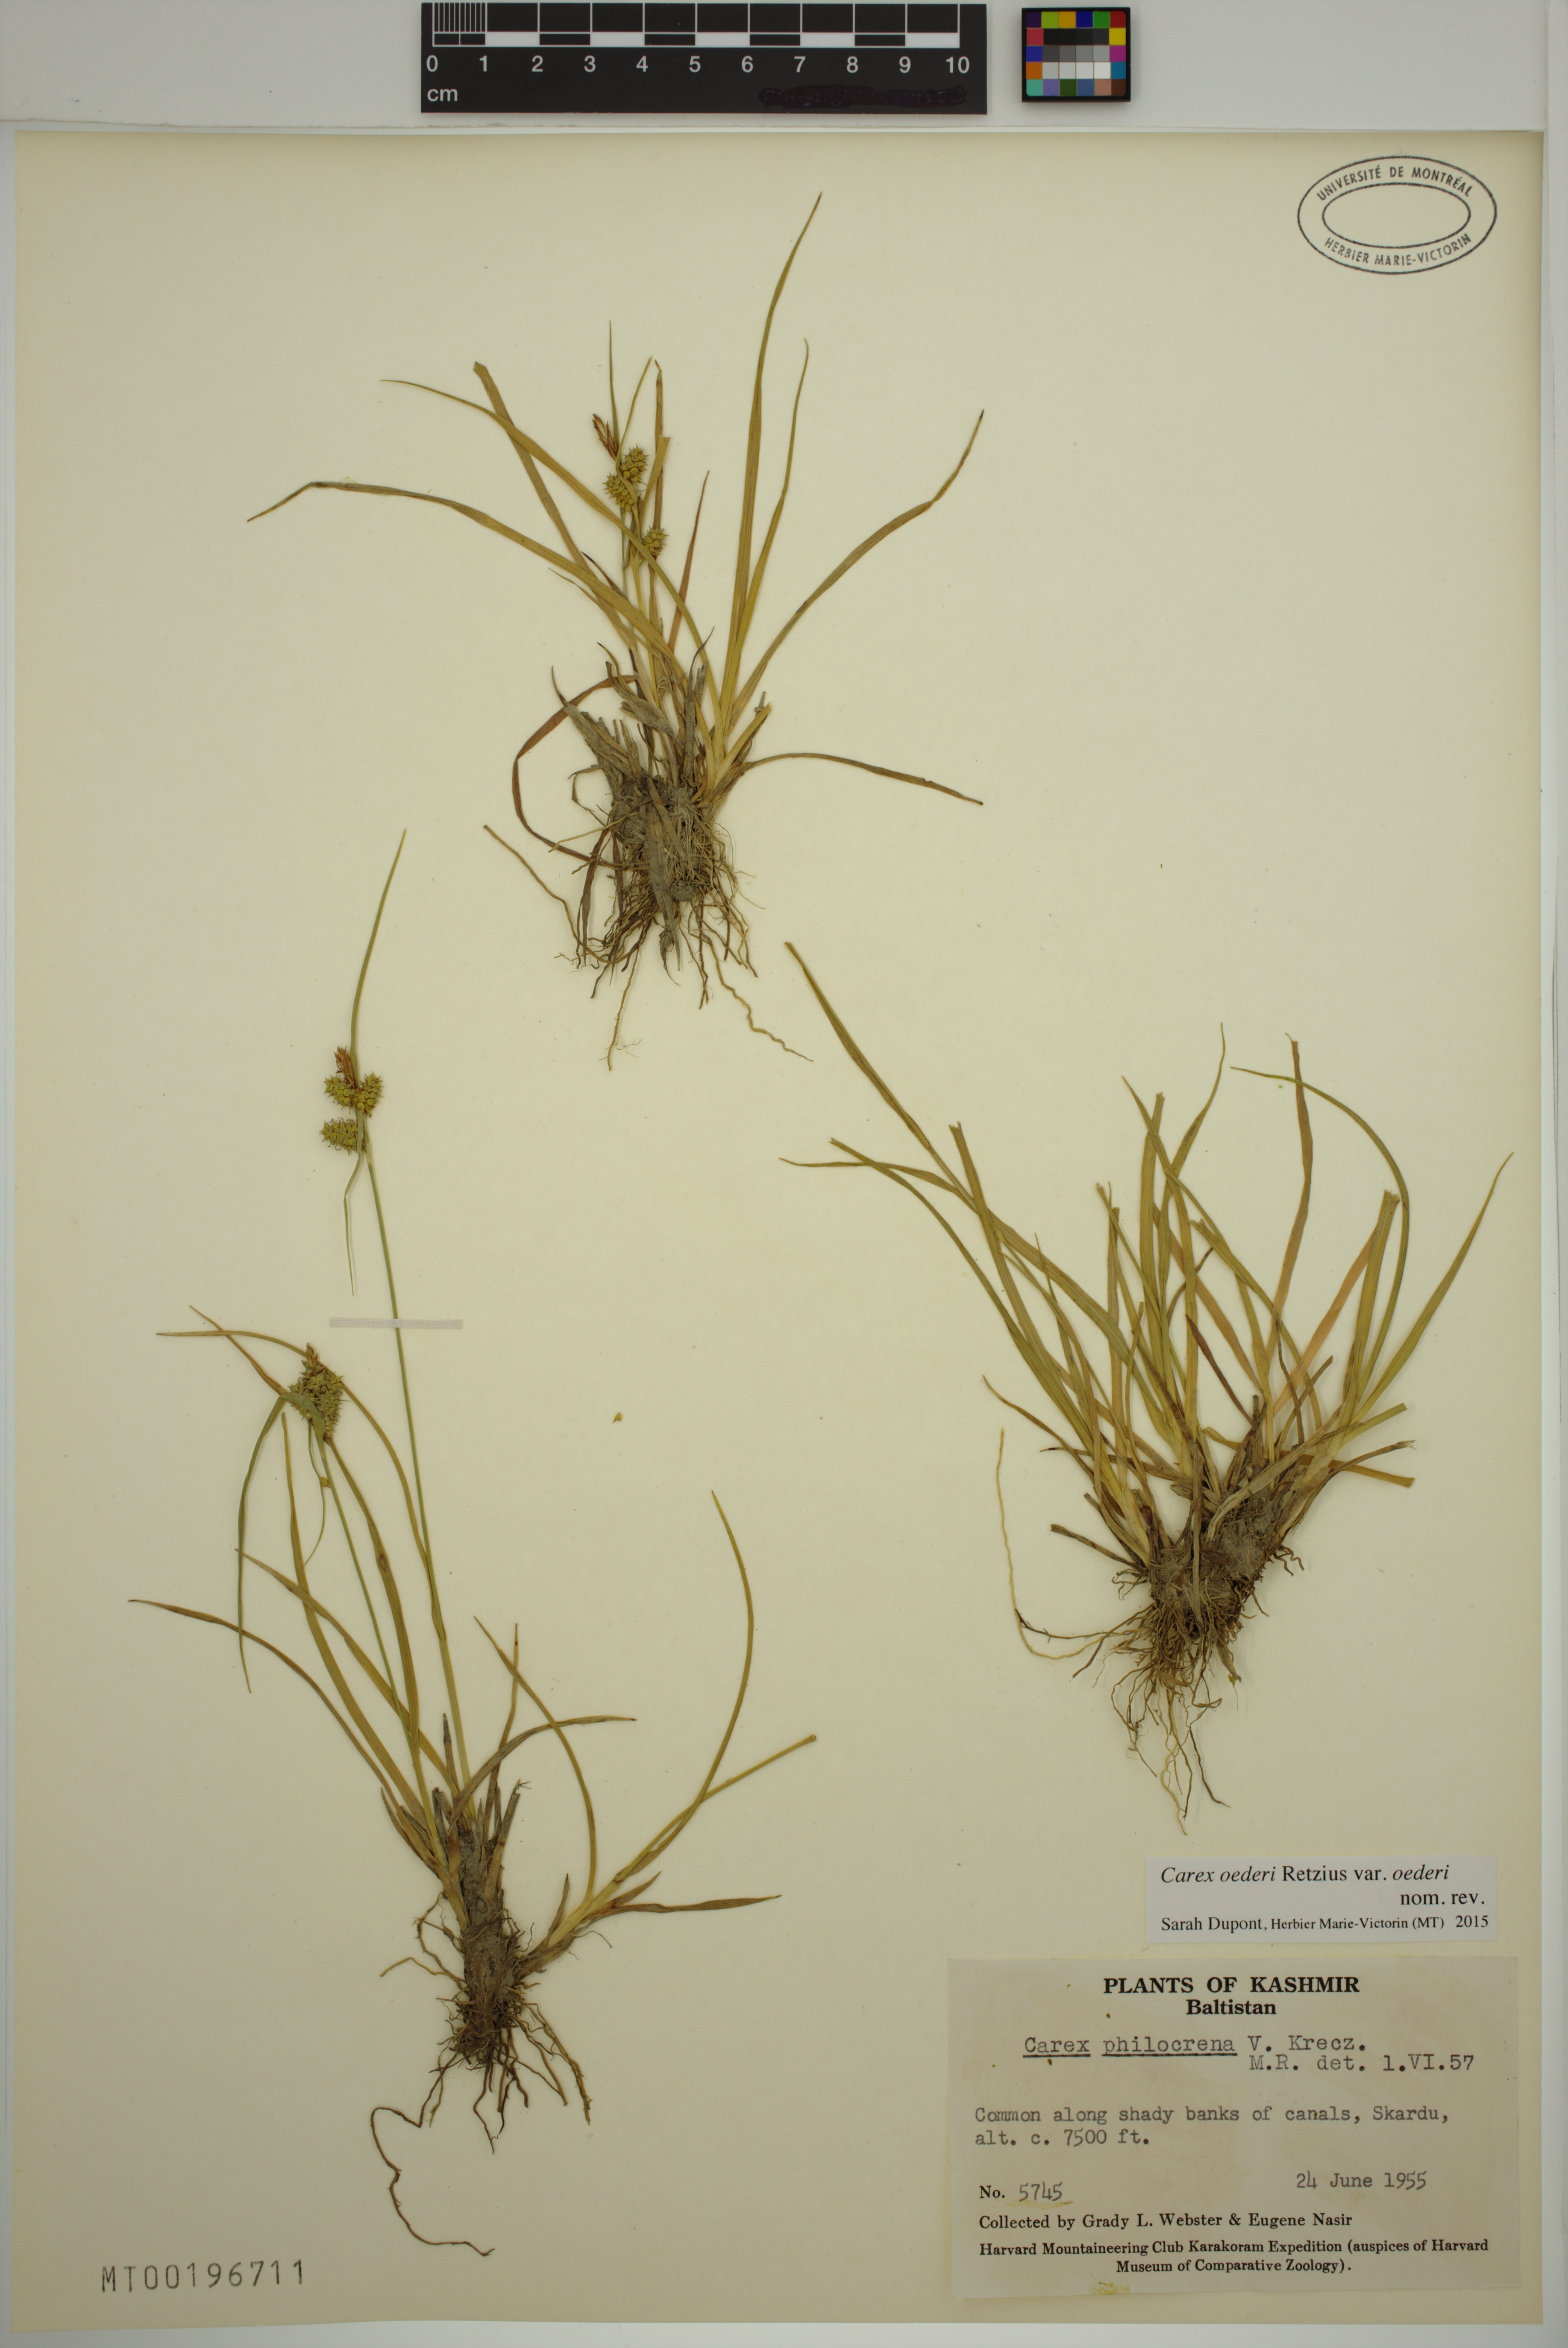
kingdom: Plantae
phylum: Tracheophyta
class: Liliopsida
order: Poales
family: Cyperaceae
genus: Carex
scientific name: Carex oederi
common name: Common & small-fruited yellow-sedge
